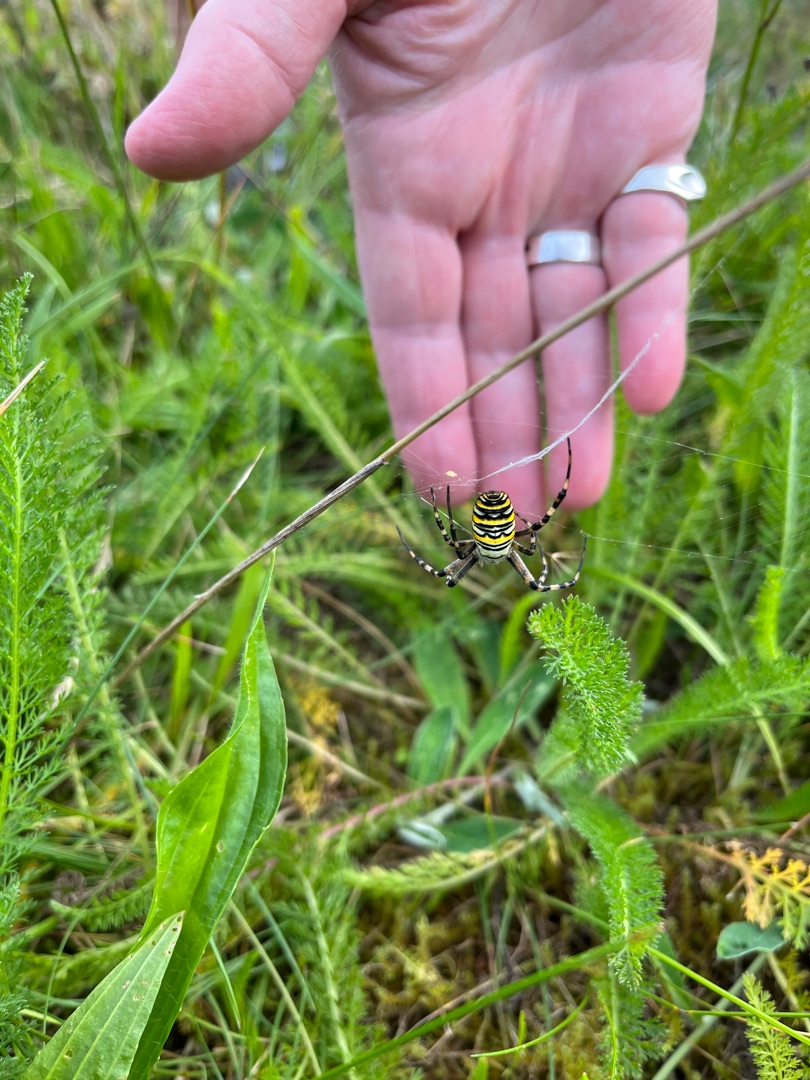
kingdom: Animalia
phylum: Arthropoda
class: Arachnida
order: Araneae
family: Araneidae
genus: Argiope
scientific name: Argiope bruennichi
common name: Hvepseedderkop
